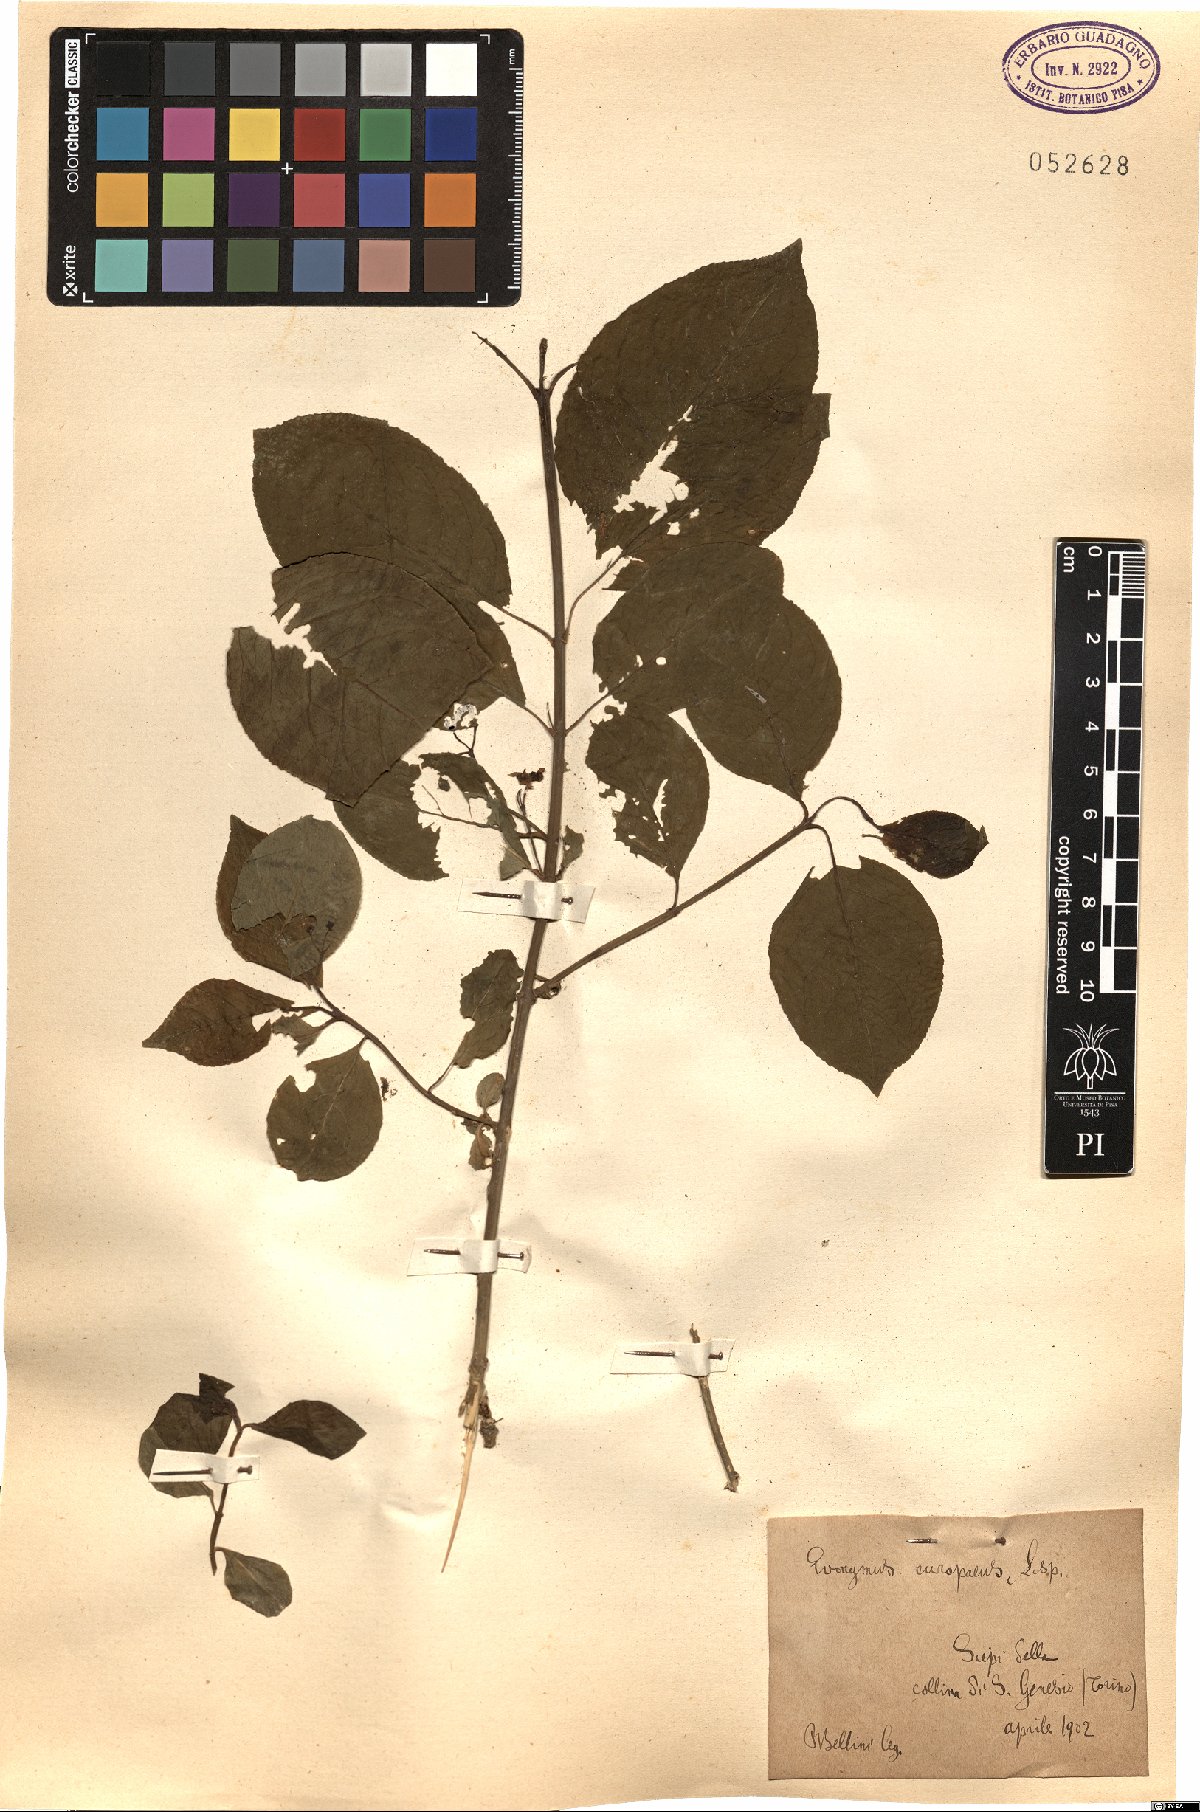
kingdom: Plantae
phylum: Tracheophyta
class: Magnoliopsida
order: Celastrales
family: Celastraceae
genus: Euonymus
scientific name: Euonymus europaeus
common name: Spindle
